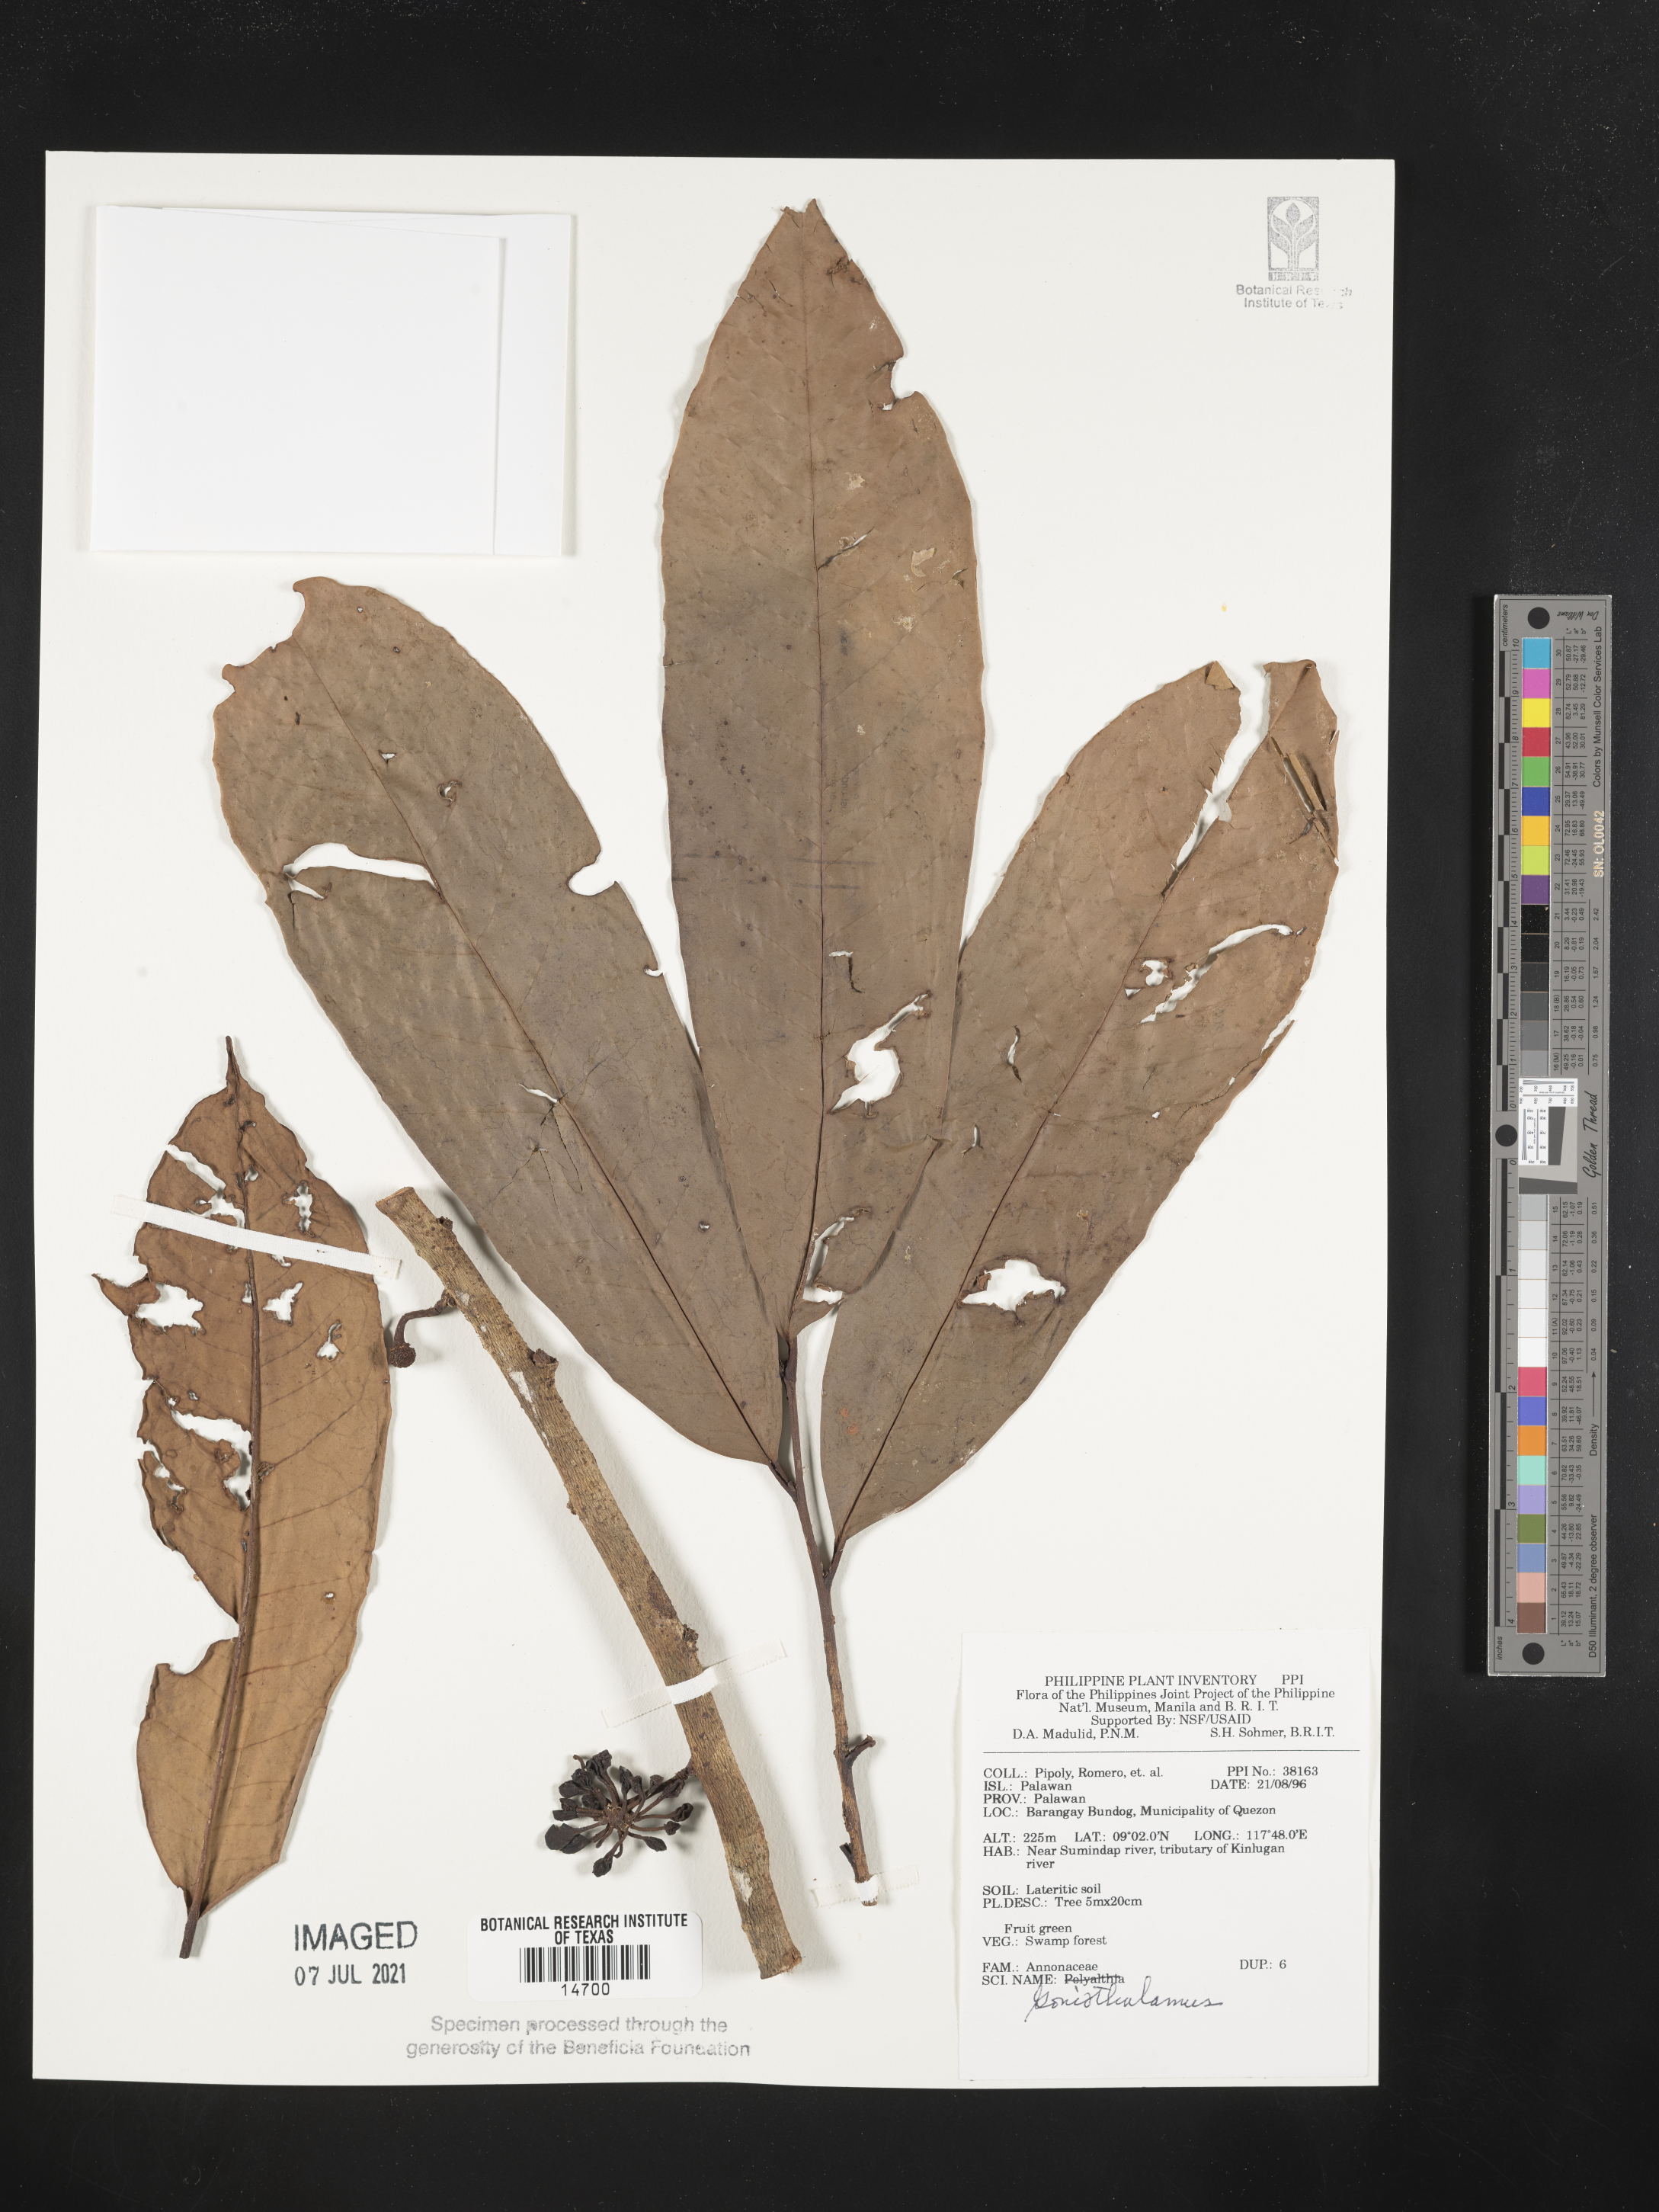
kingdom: Plantae
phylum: Tracheophyta
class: Magnoliopsida
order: Magnoliales
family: Annonaceae
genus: Goniothalamus
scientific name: Goniothalamus
